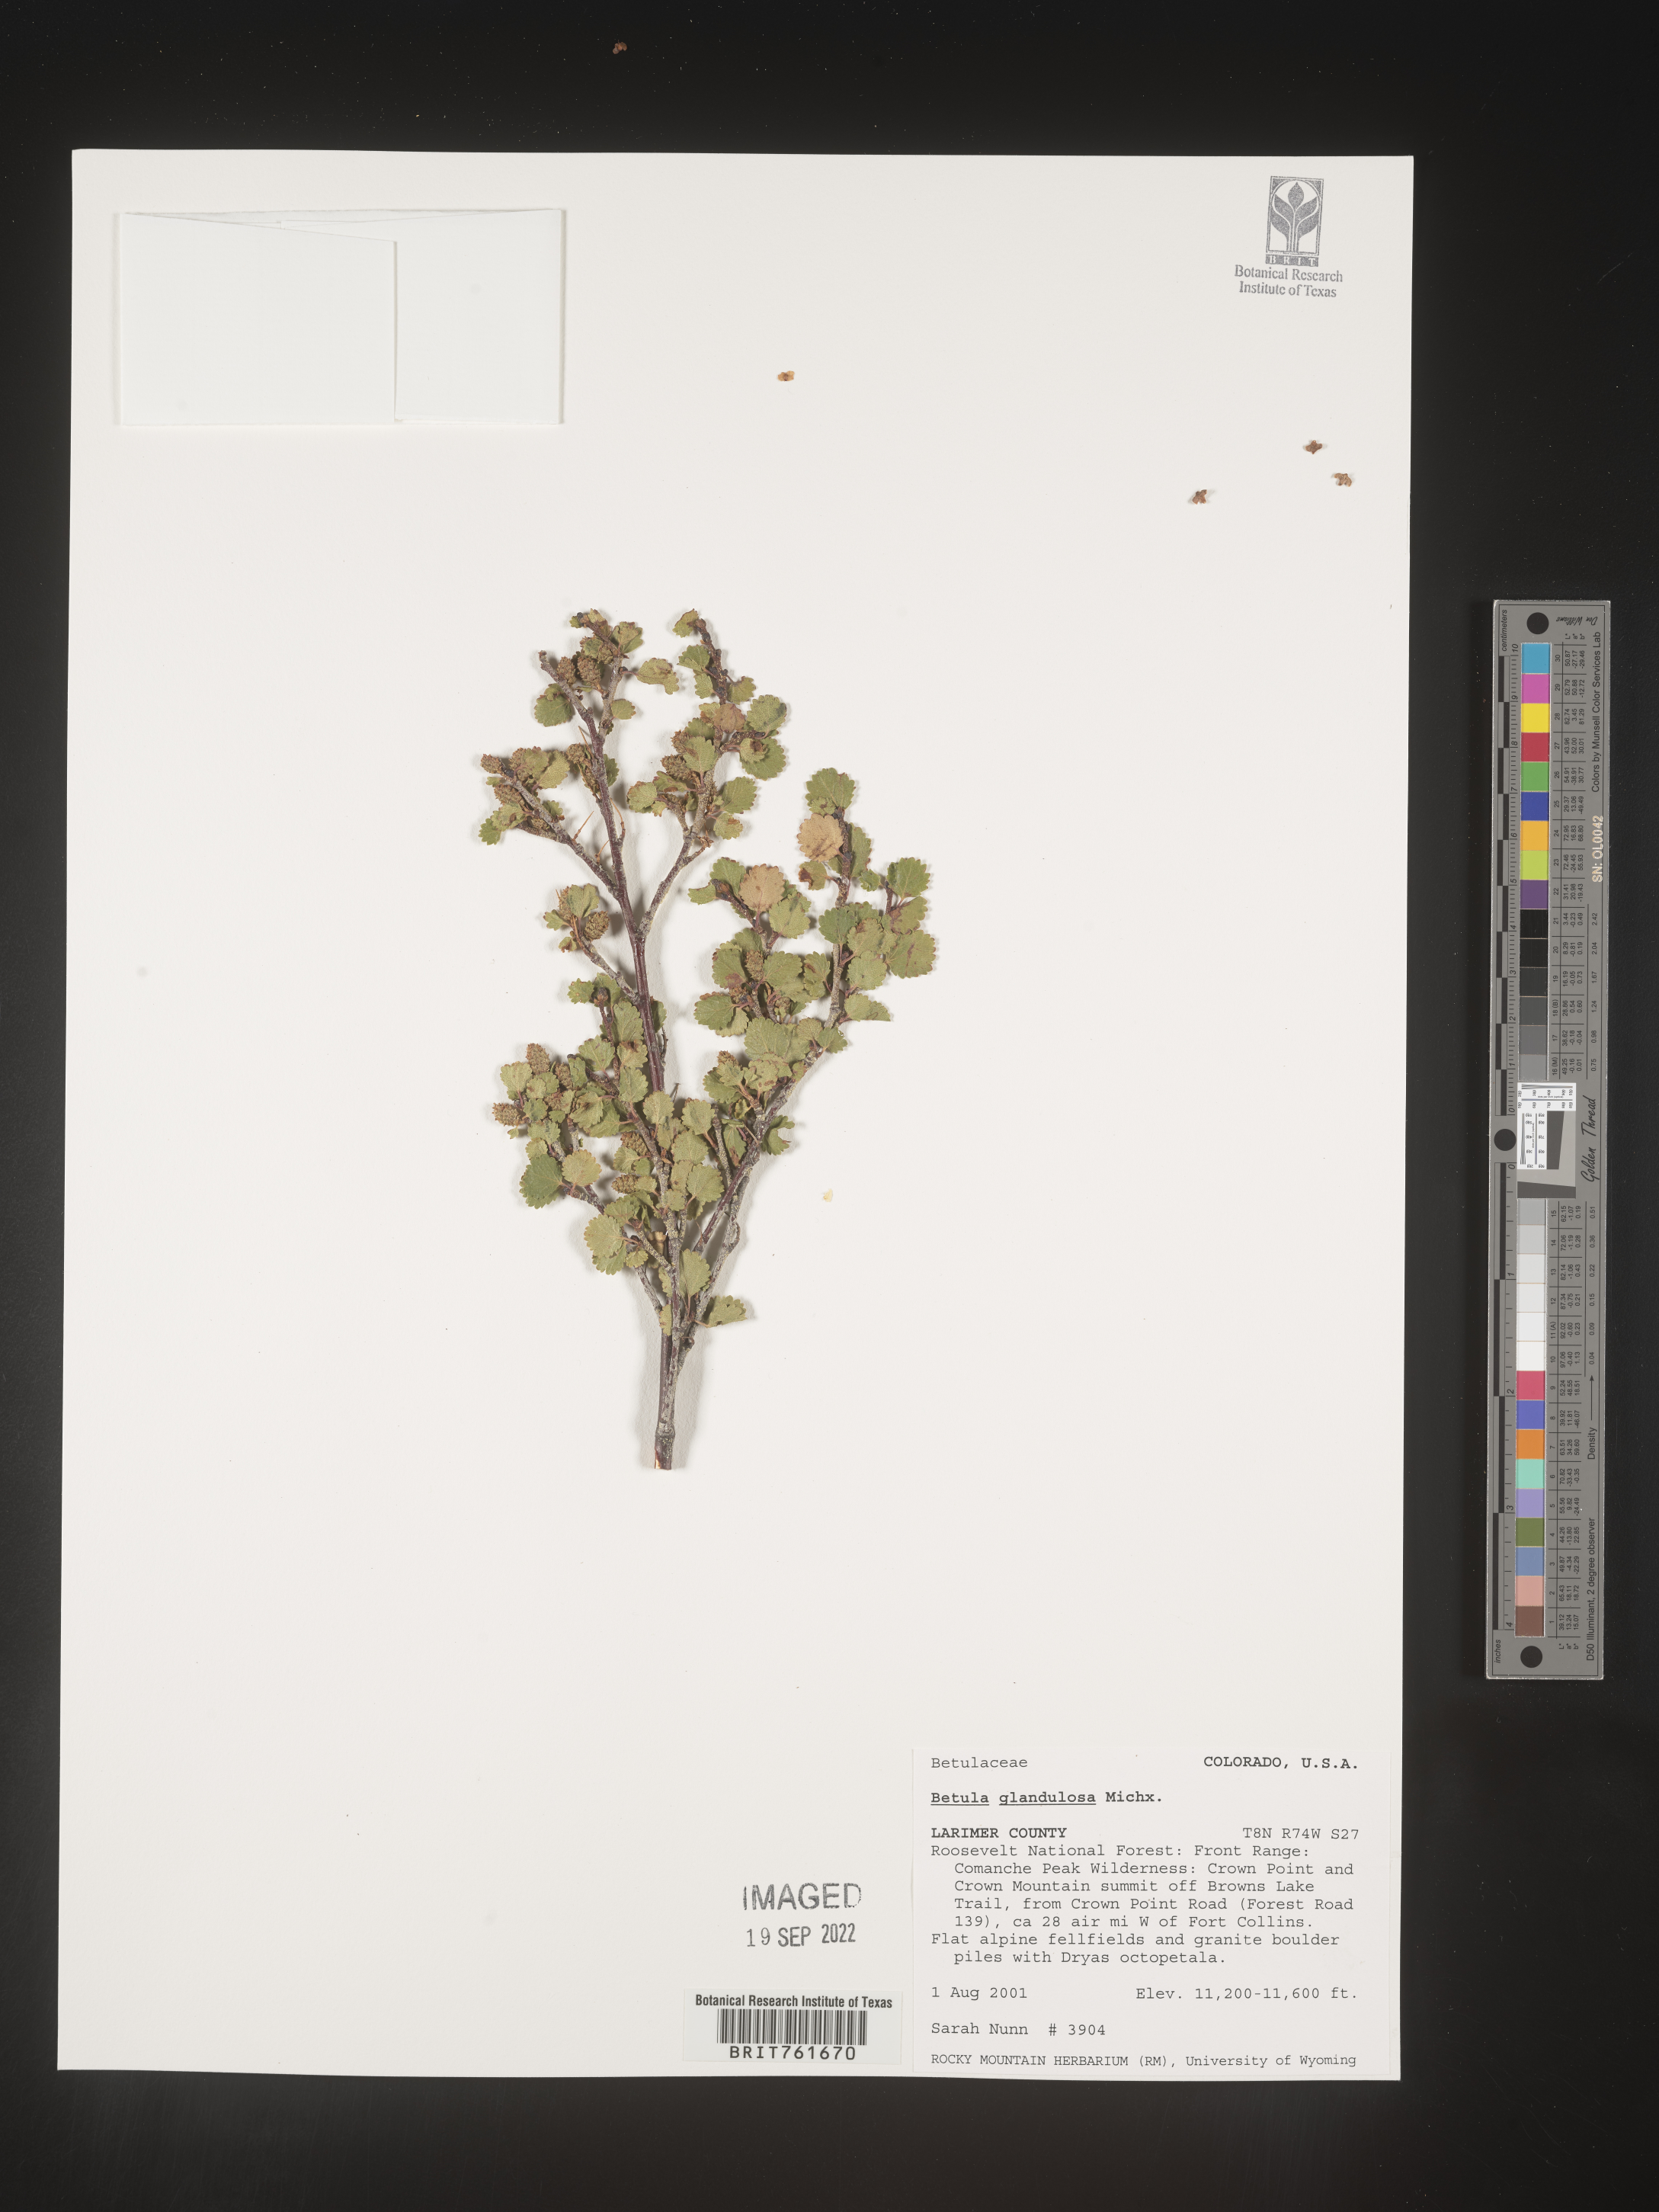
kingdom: Plantae
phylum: Tracheophyta
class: Magnoliopsida
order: Fagales
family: Betulaceae
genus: Betula
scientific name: Betula
